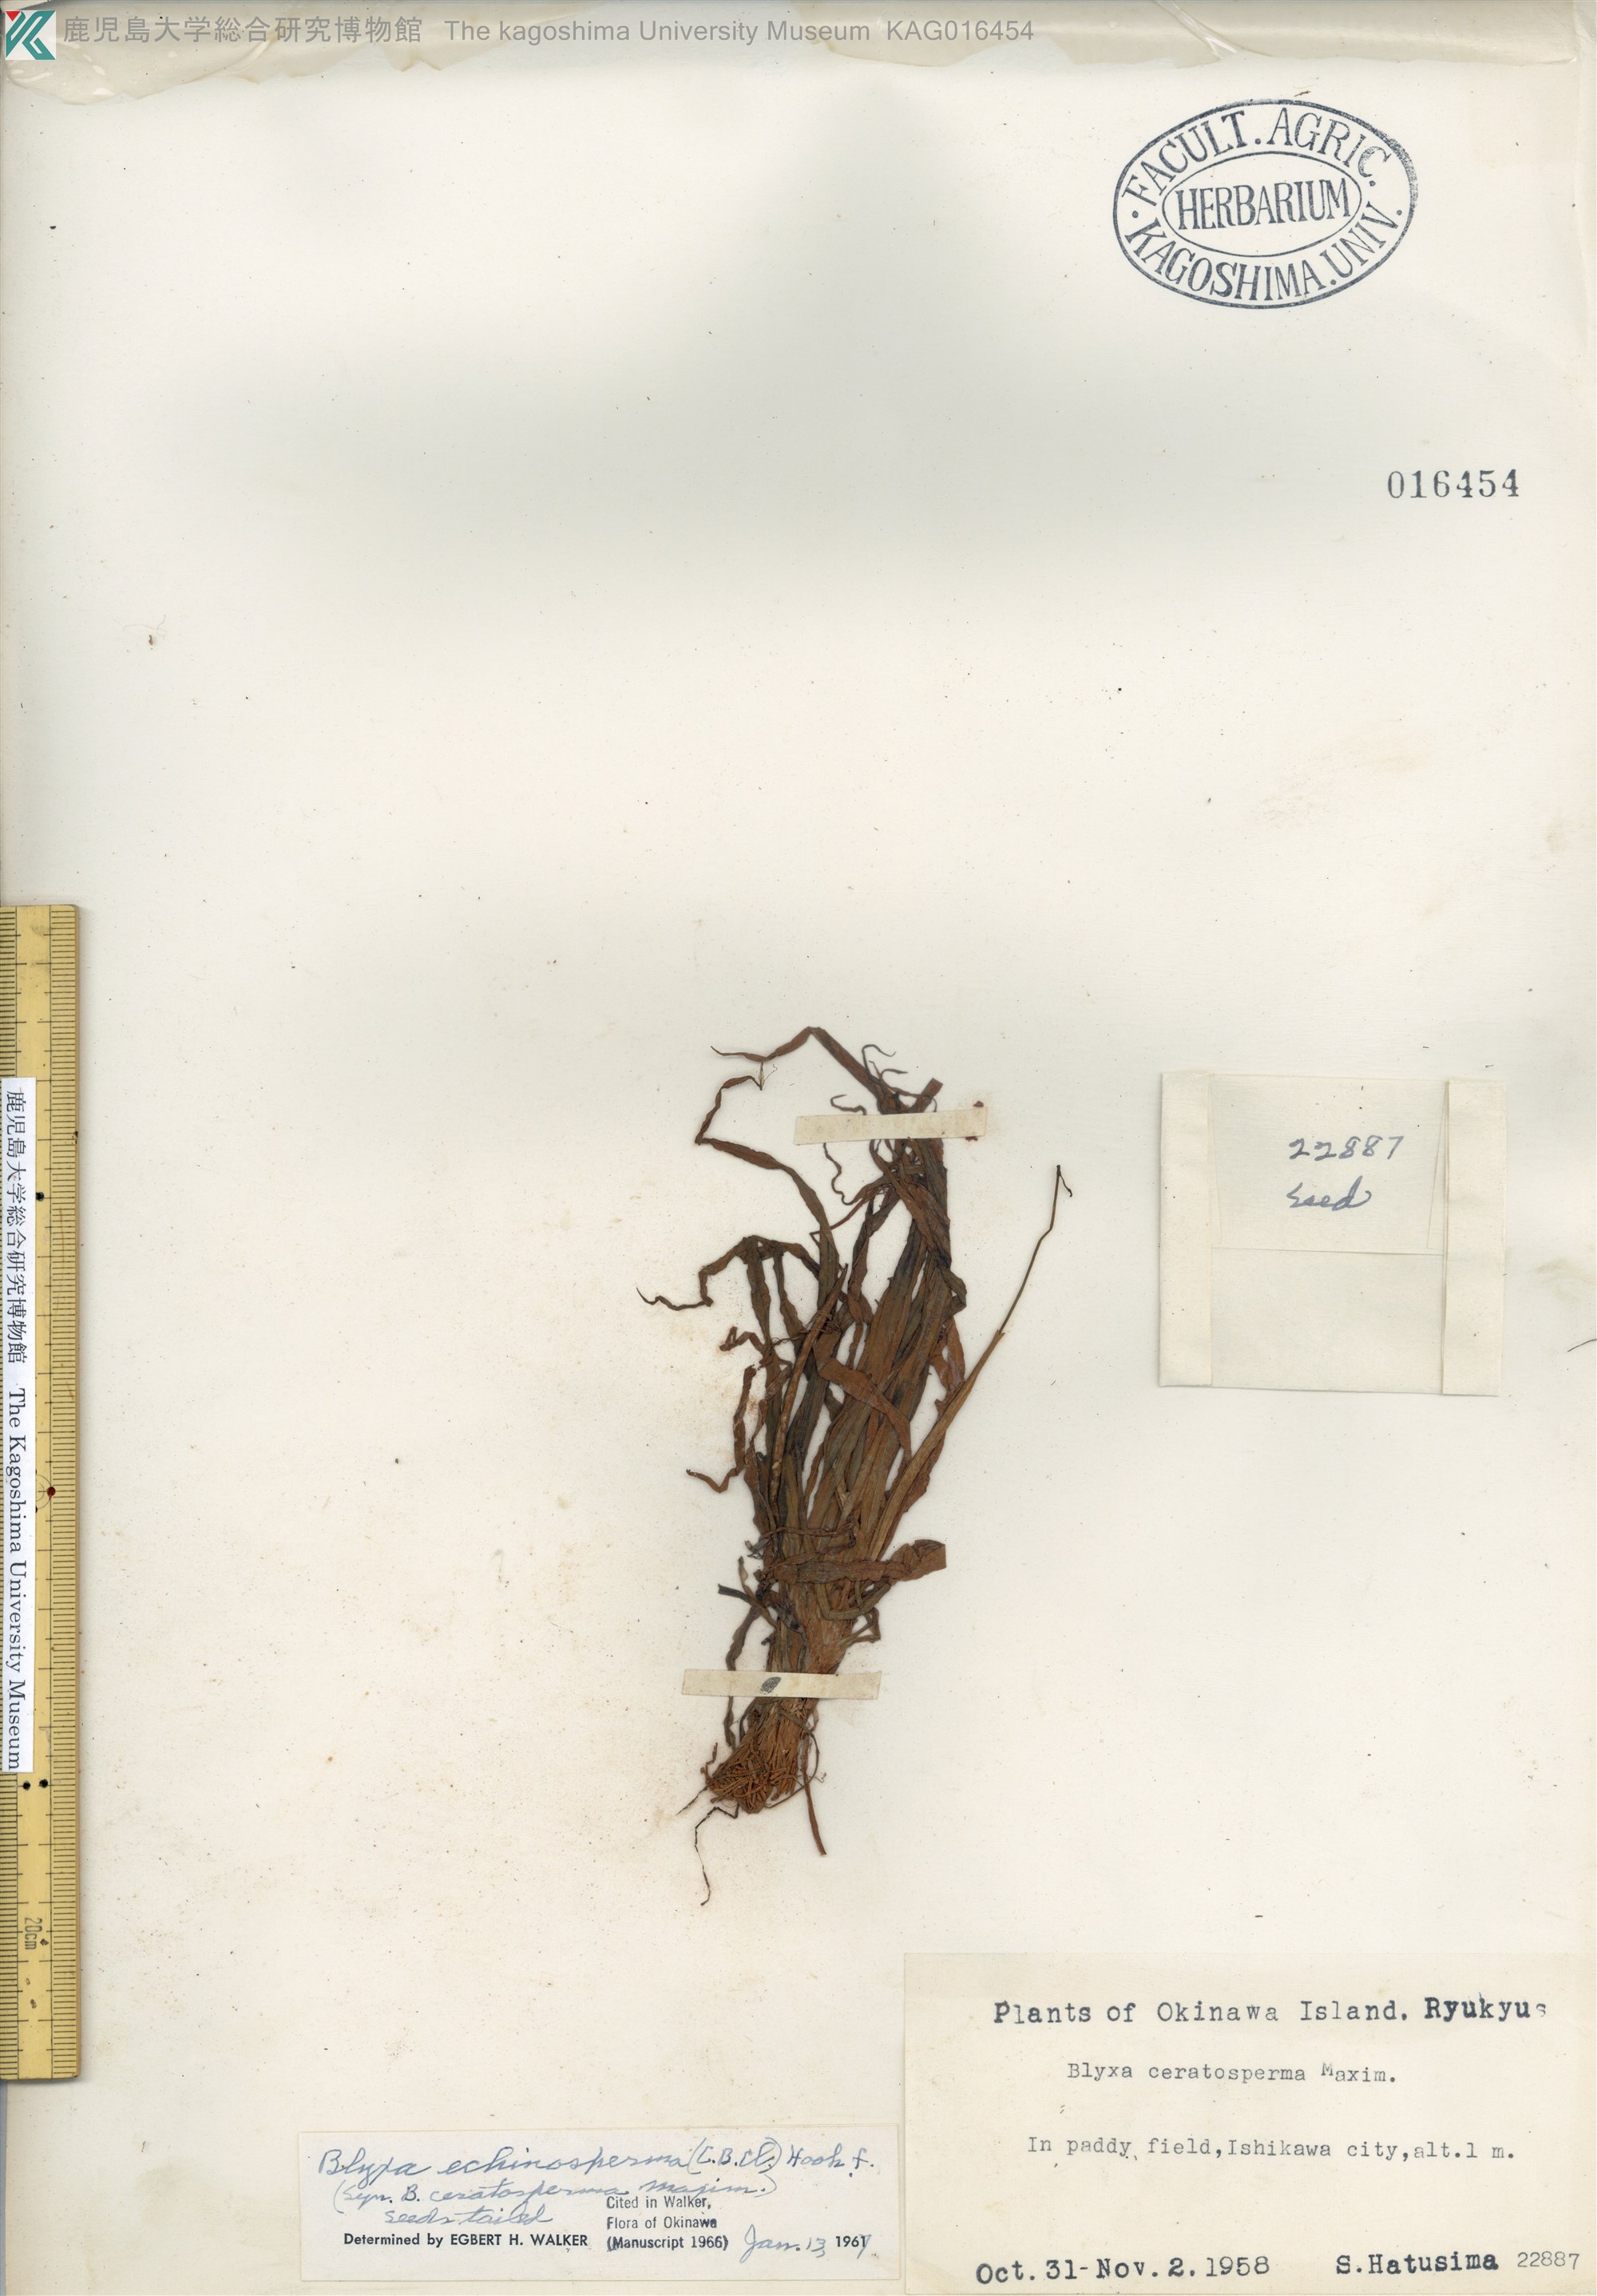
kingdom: Plantae
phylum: Tracheophyta
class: Liliopsida
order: Alismatales
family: Hydrocharitaceae
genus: Blyxa
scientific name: Blyxa echinosperma
